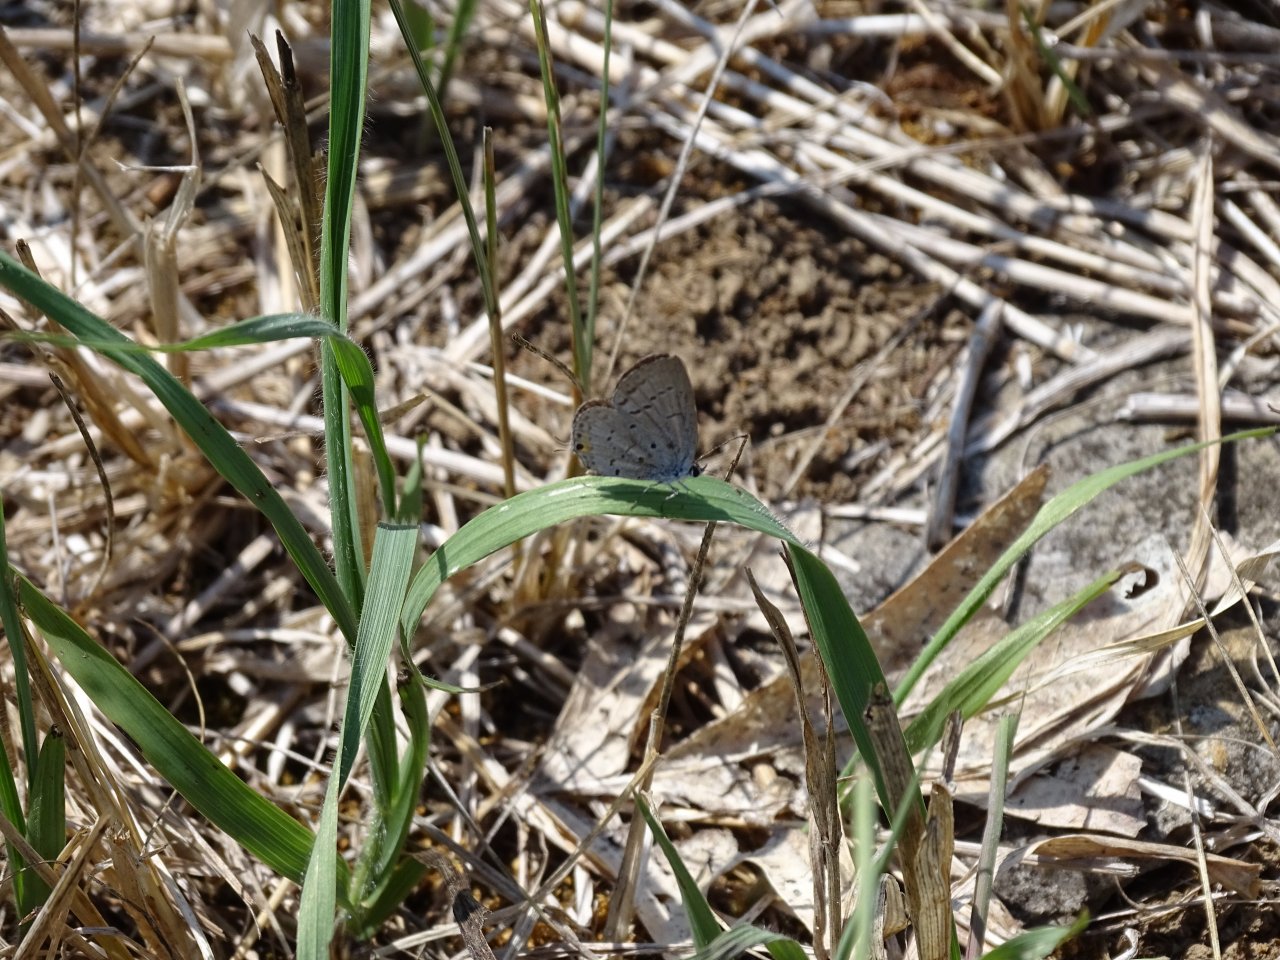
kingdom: Animalia
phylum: Arthropoda
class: Insecta
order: Lepidoptera
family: Lycaenidae
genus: Elkalyce
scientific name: Elkalyce comyntas
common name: Eastern Tailed-Blue
